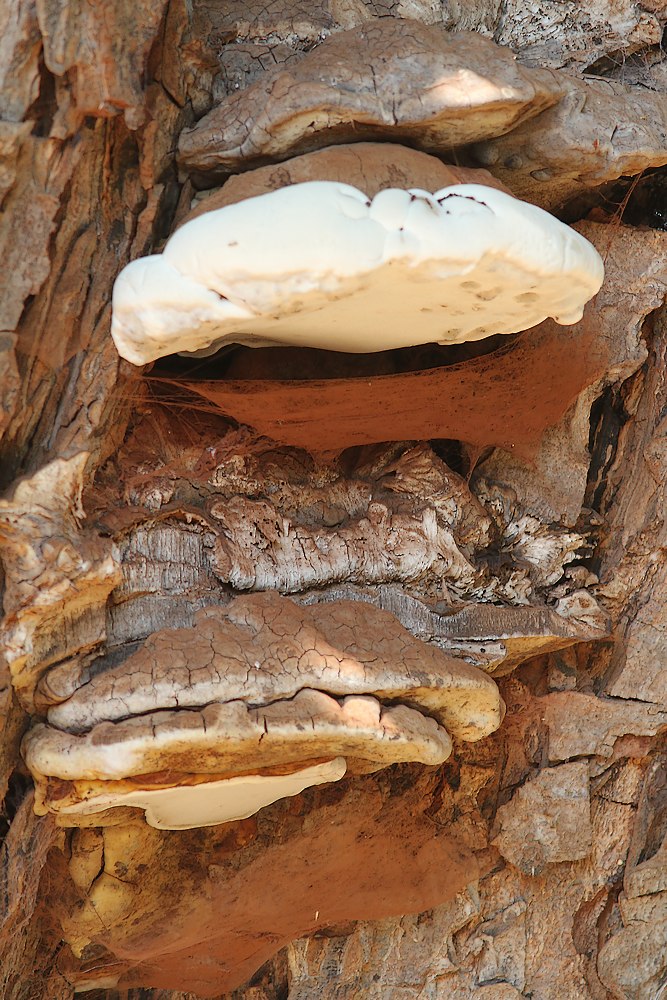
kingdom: Fungi
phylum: Basidiomycota
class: Agaricomycetes
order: Polyporales
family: Polyporaceae
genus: Ganoderma
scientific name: Ganoderma adspersum
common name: grov lakporesvamp
